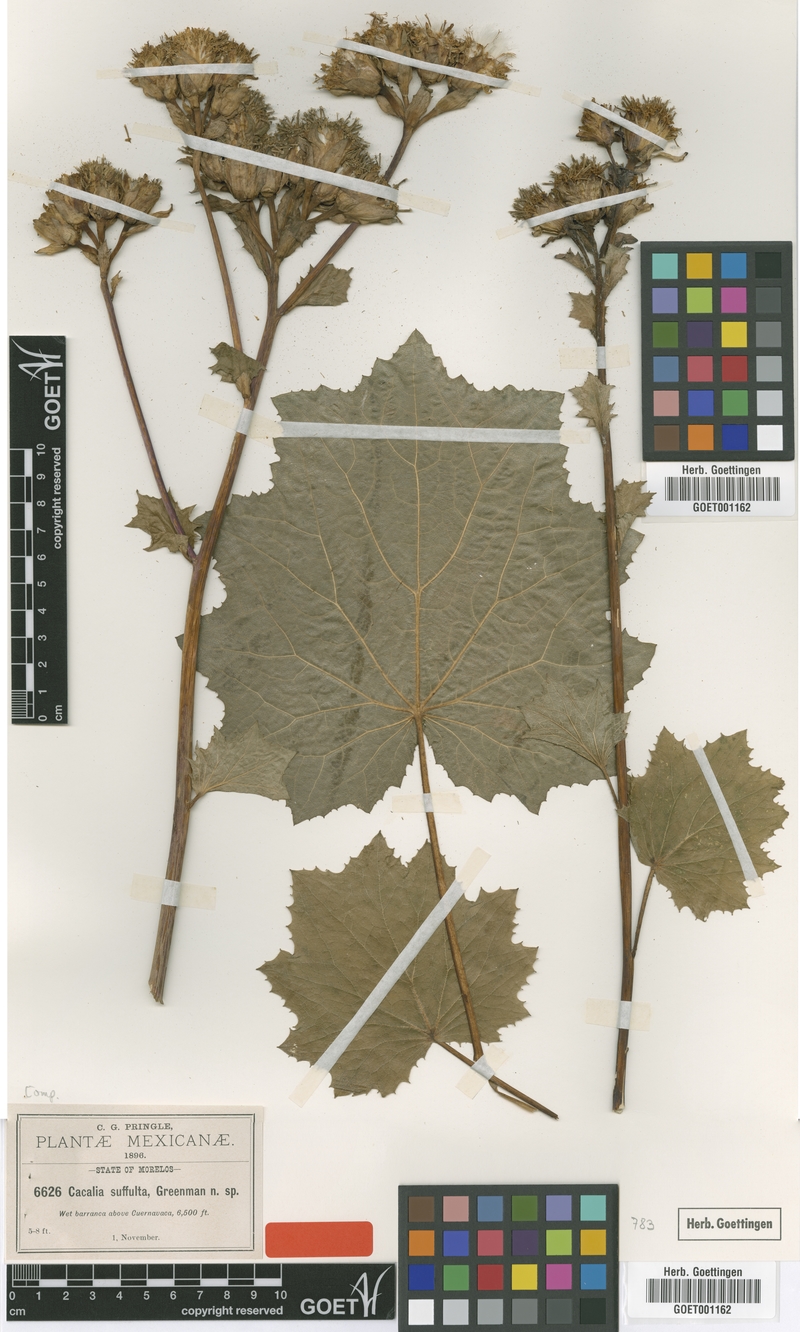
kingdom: Plantae
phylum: Tracheophyta
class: Magnoliopsida
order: Asterales
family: Asteraceae
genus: Roldana
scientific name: Roldana suffulta
